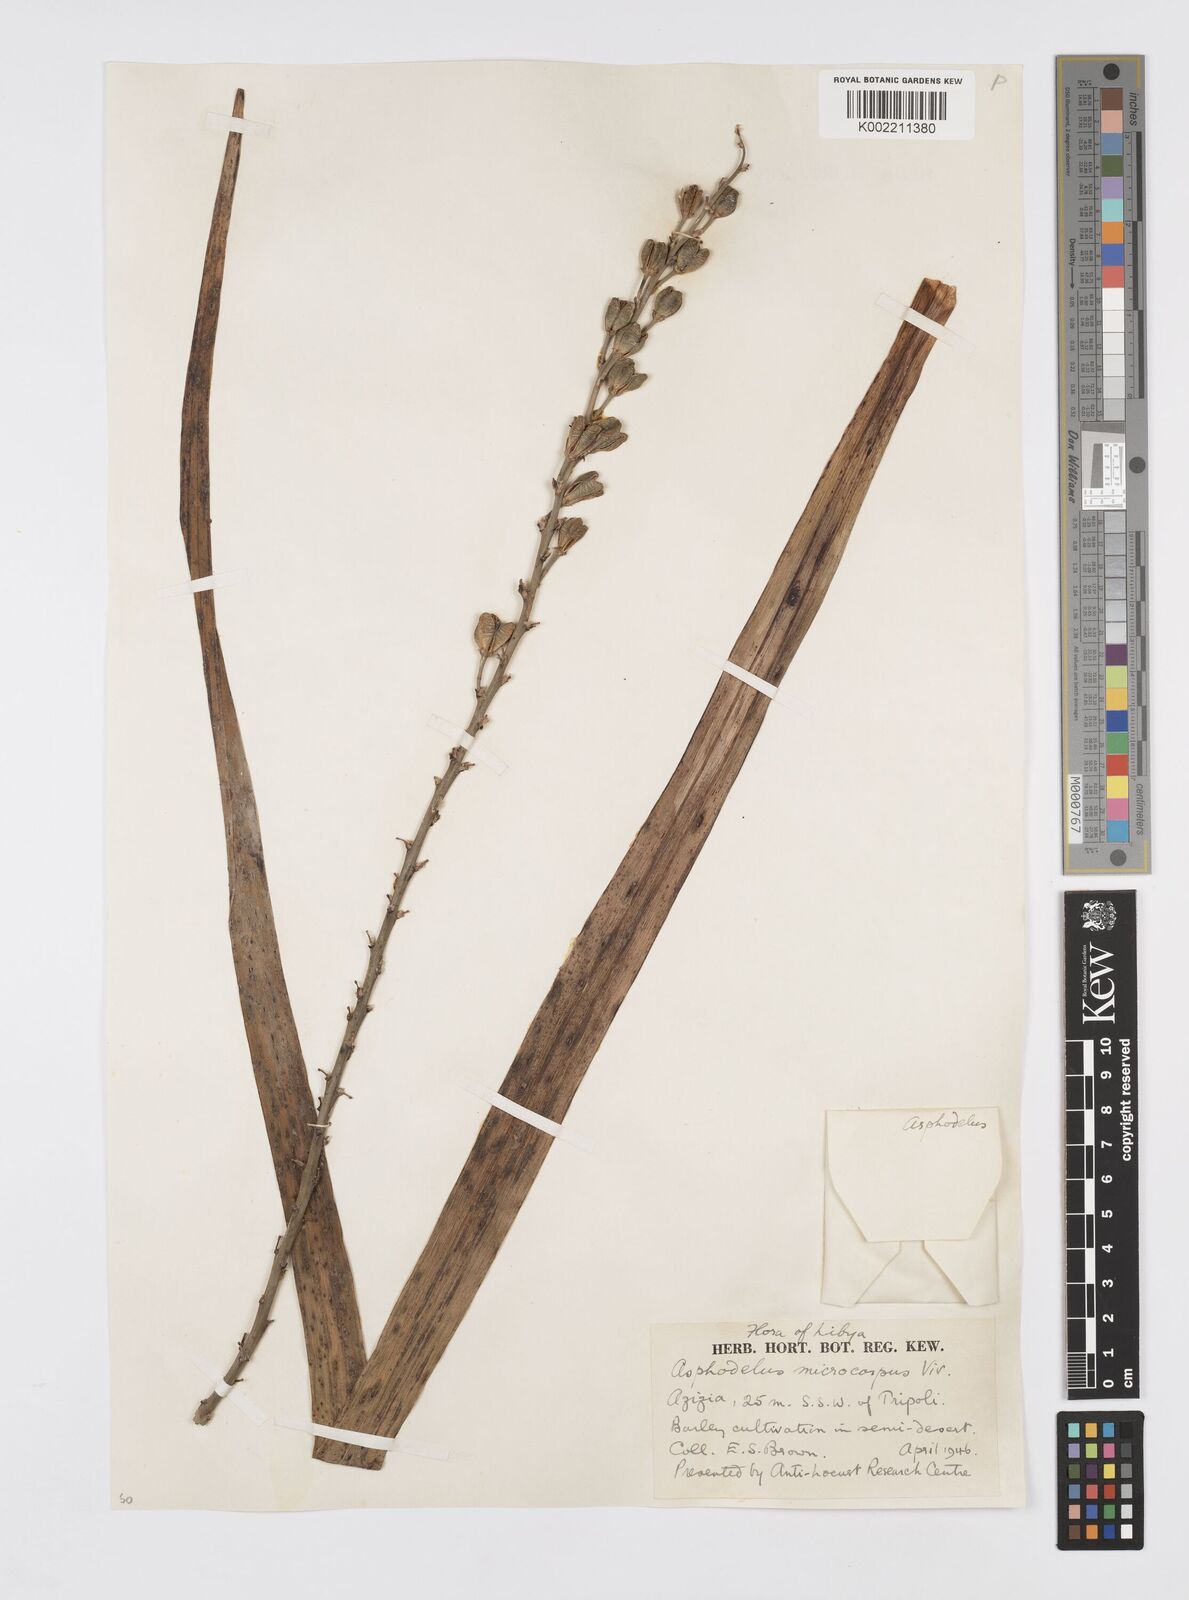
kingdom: Plantae
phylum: Tracheophyta
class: Liliopsida
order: Asparagales
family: Asphodelaceae
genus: Asphodelus
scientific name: Asphodelus ramosus
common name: Silverrod
